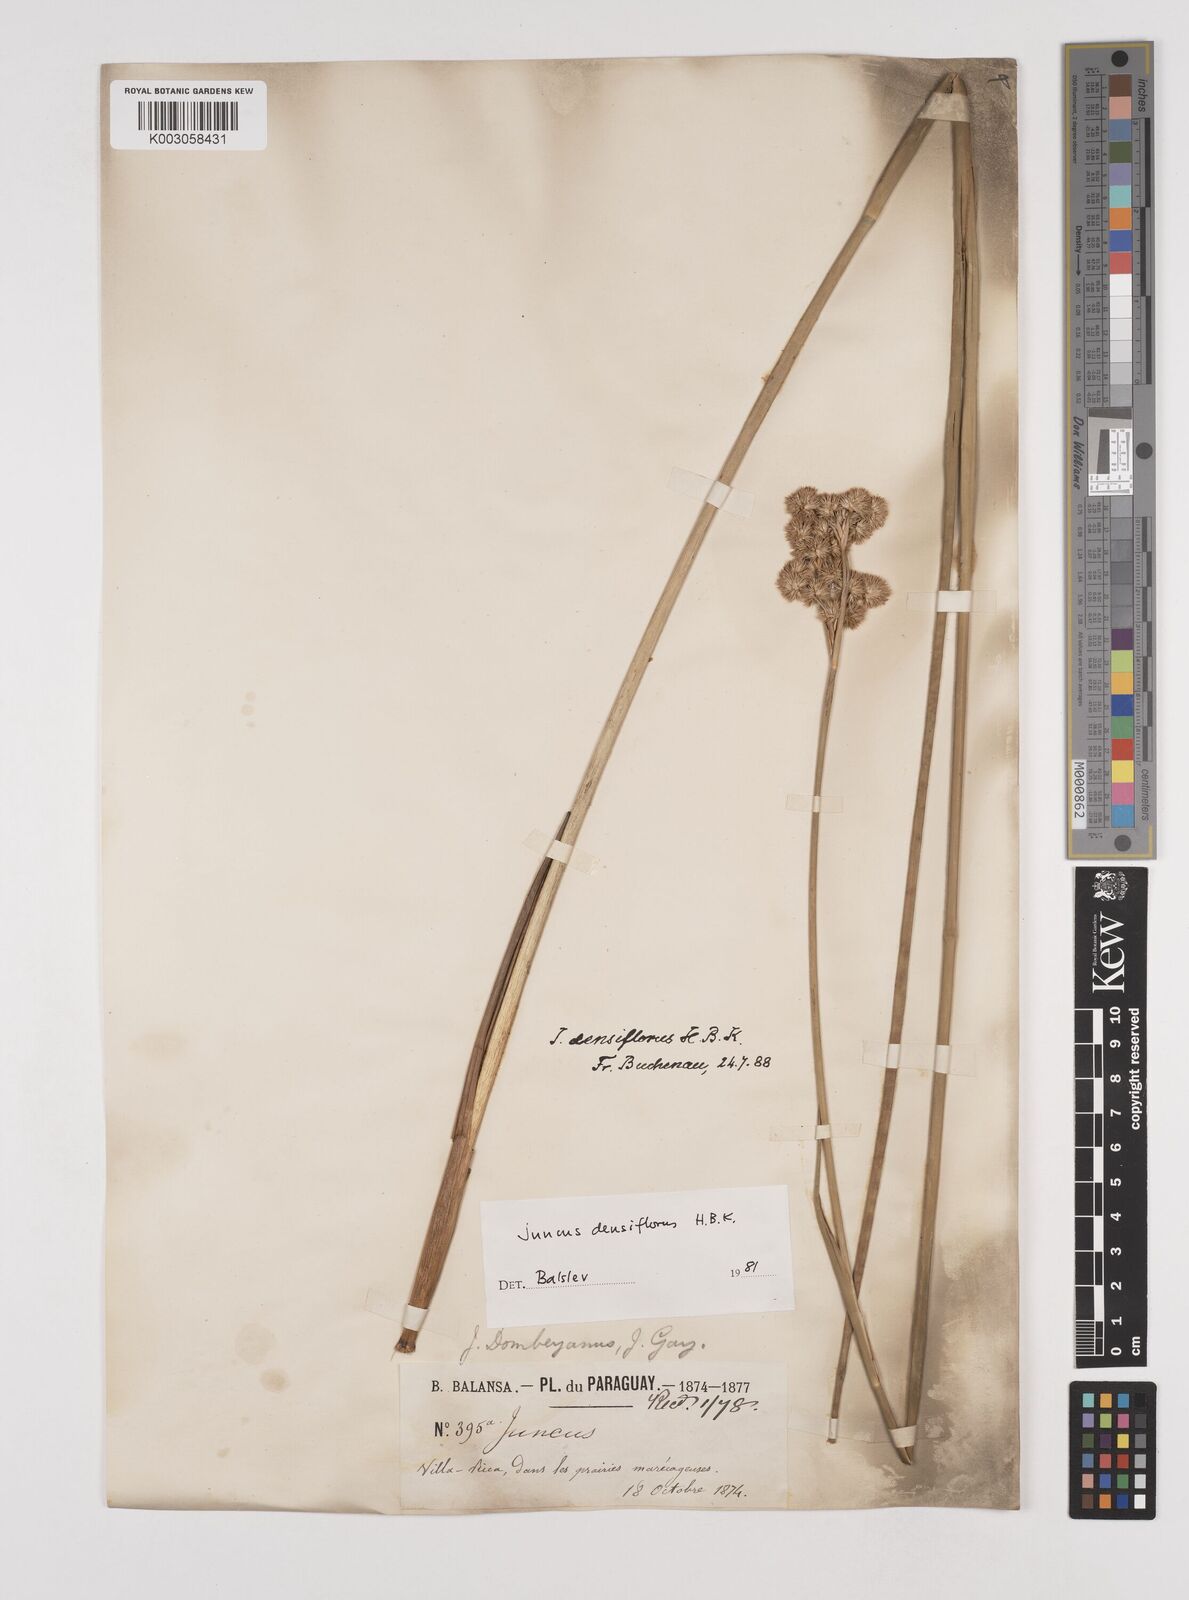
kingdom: Plantae
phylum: Tracheophyta
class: Liliopsida
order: Poales
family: Juncaceae
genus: Juncus
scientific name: Juncus densiflorus
